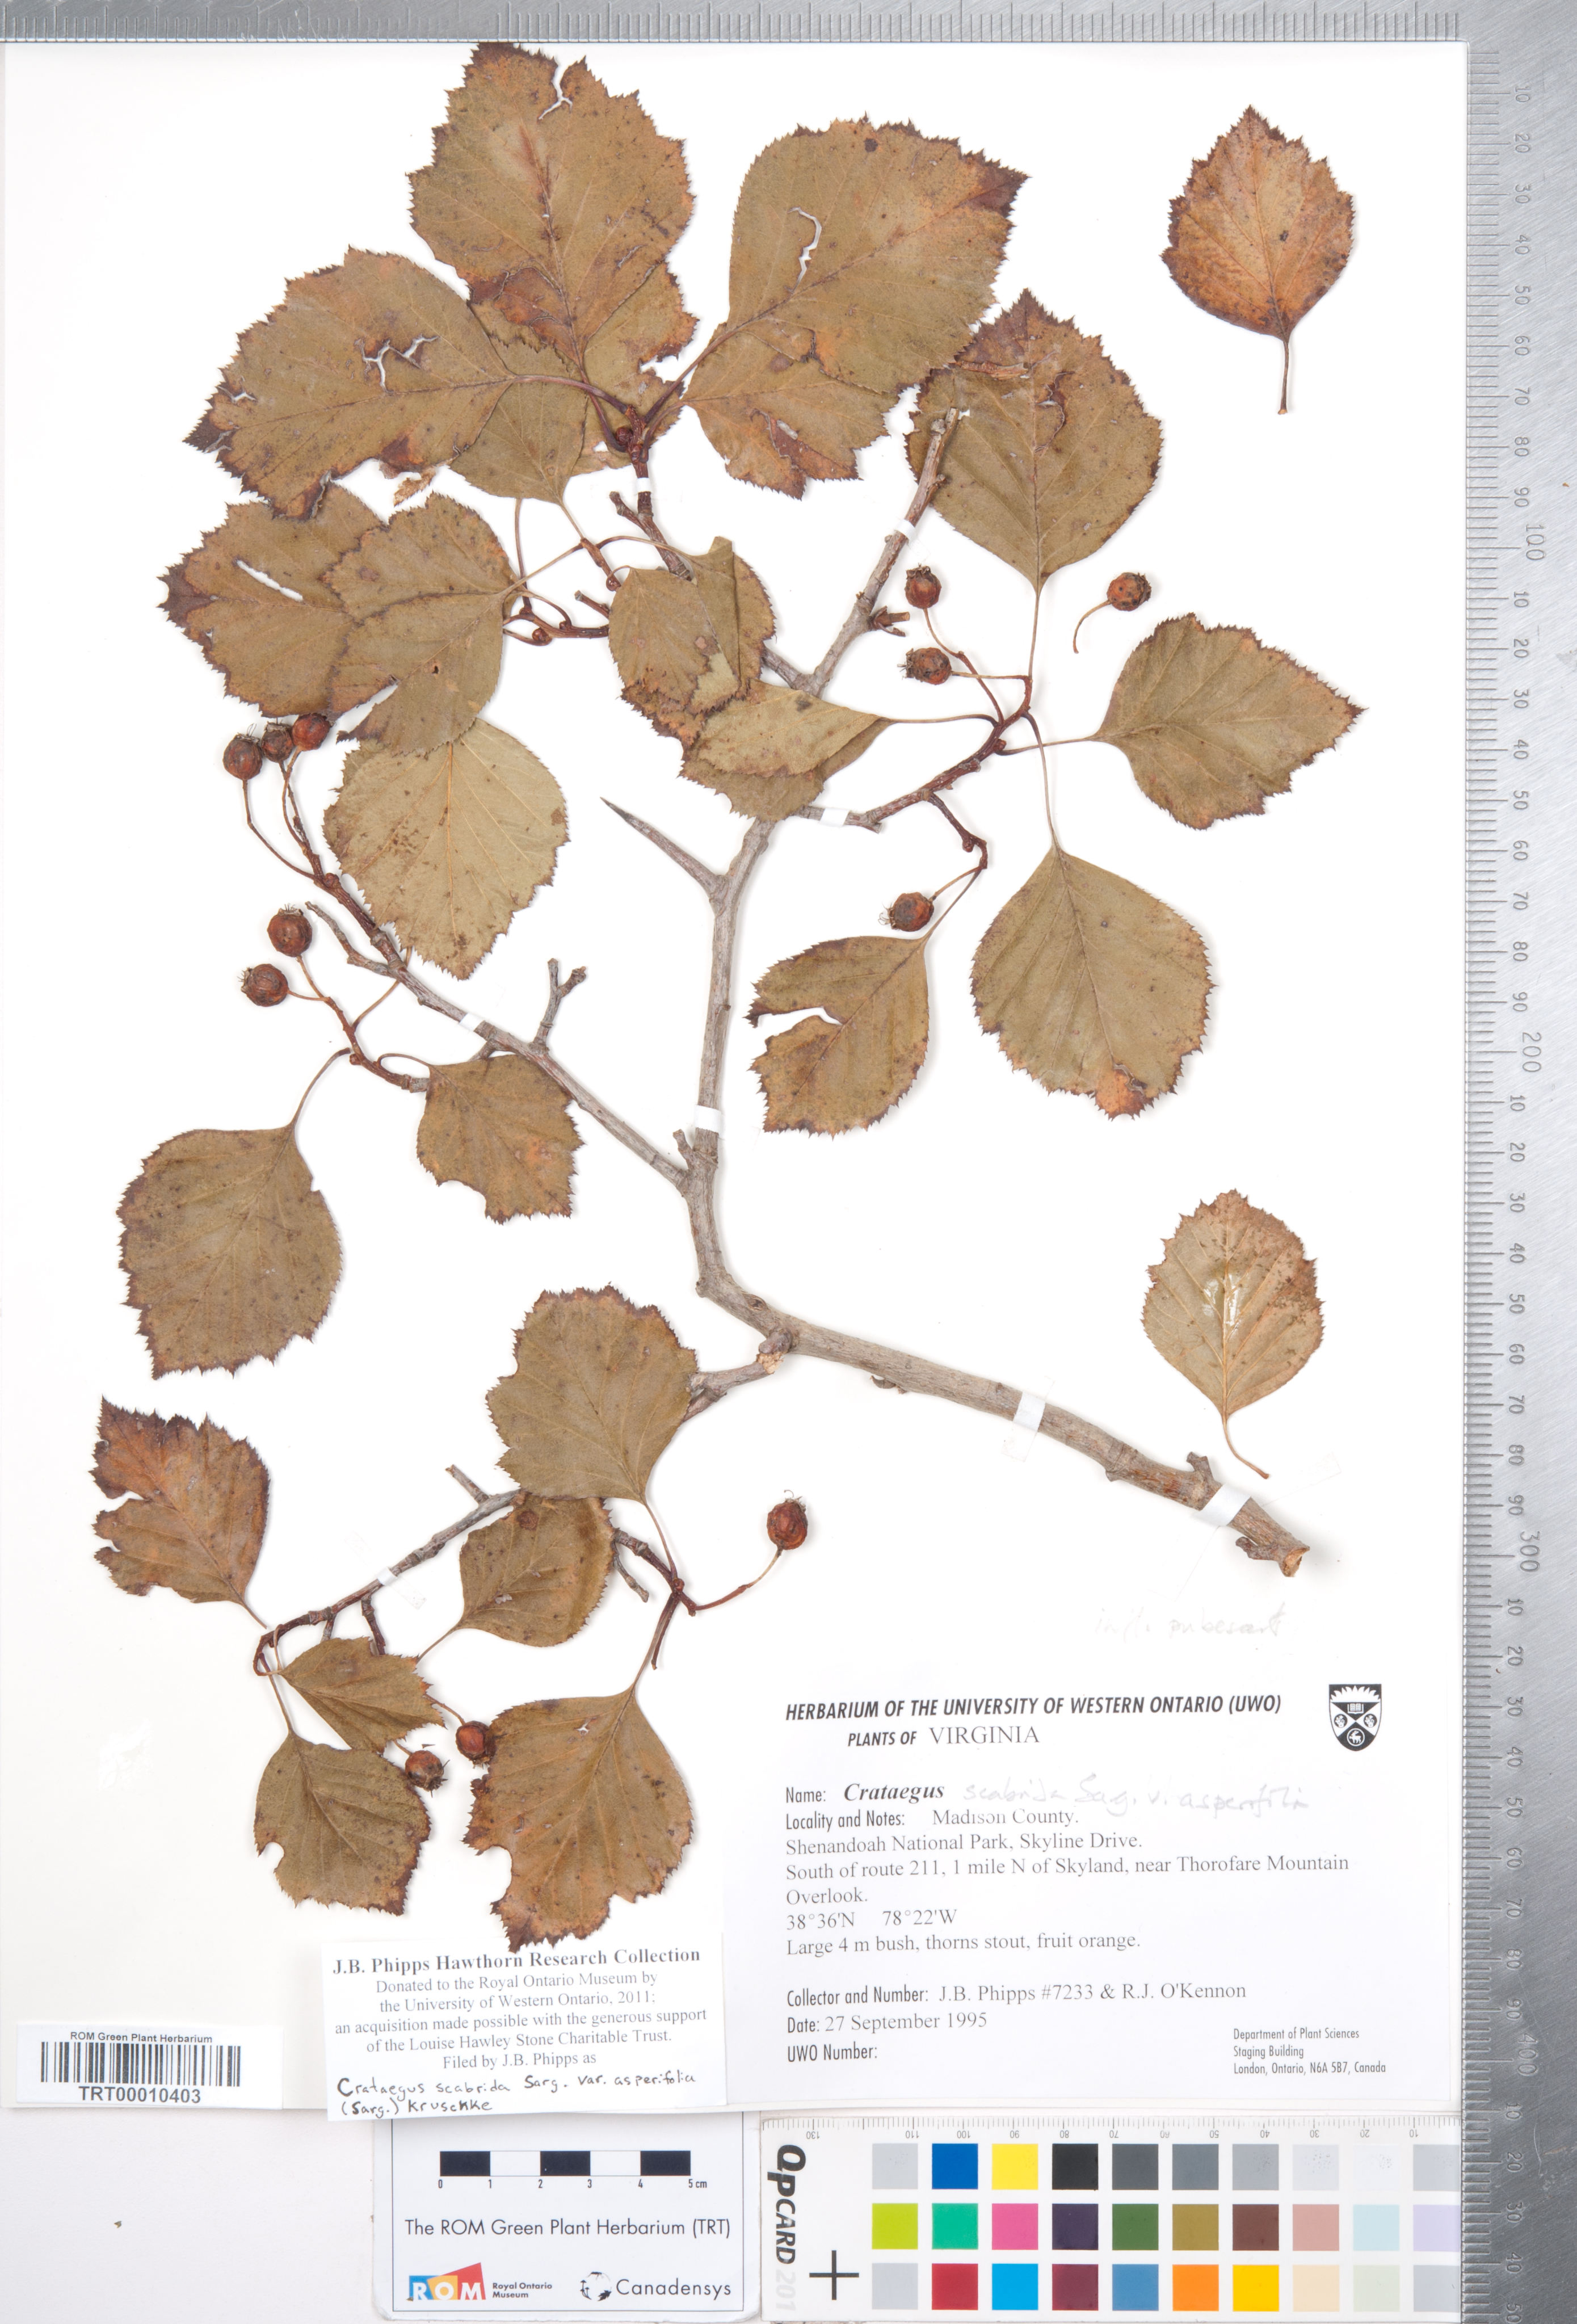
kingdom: Plantae
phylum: Tracheophyta
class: Magnoliopsida
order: Rosales
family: Rosaceae
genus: Crataegus
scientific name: Crataegus scabrida
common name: Rough hawthorn
